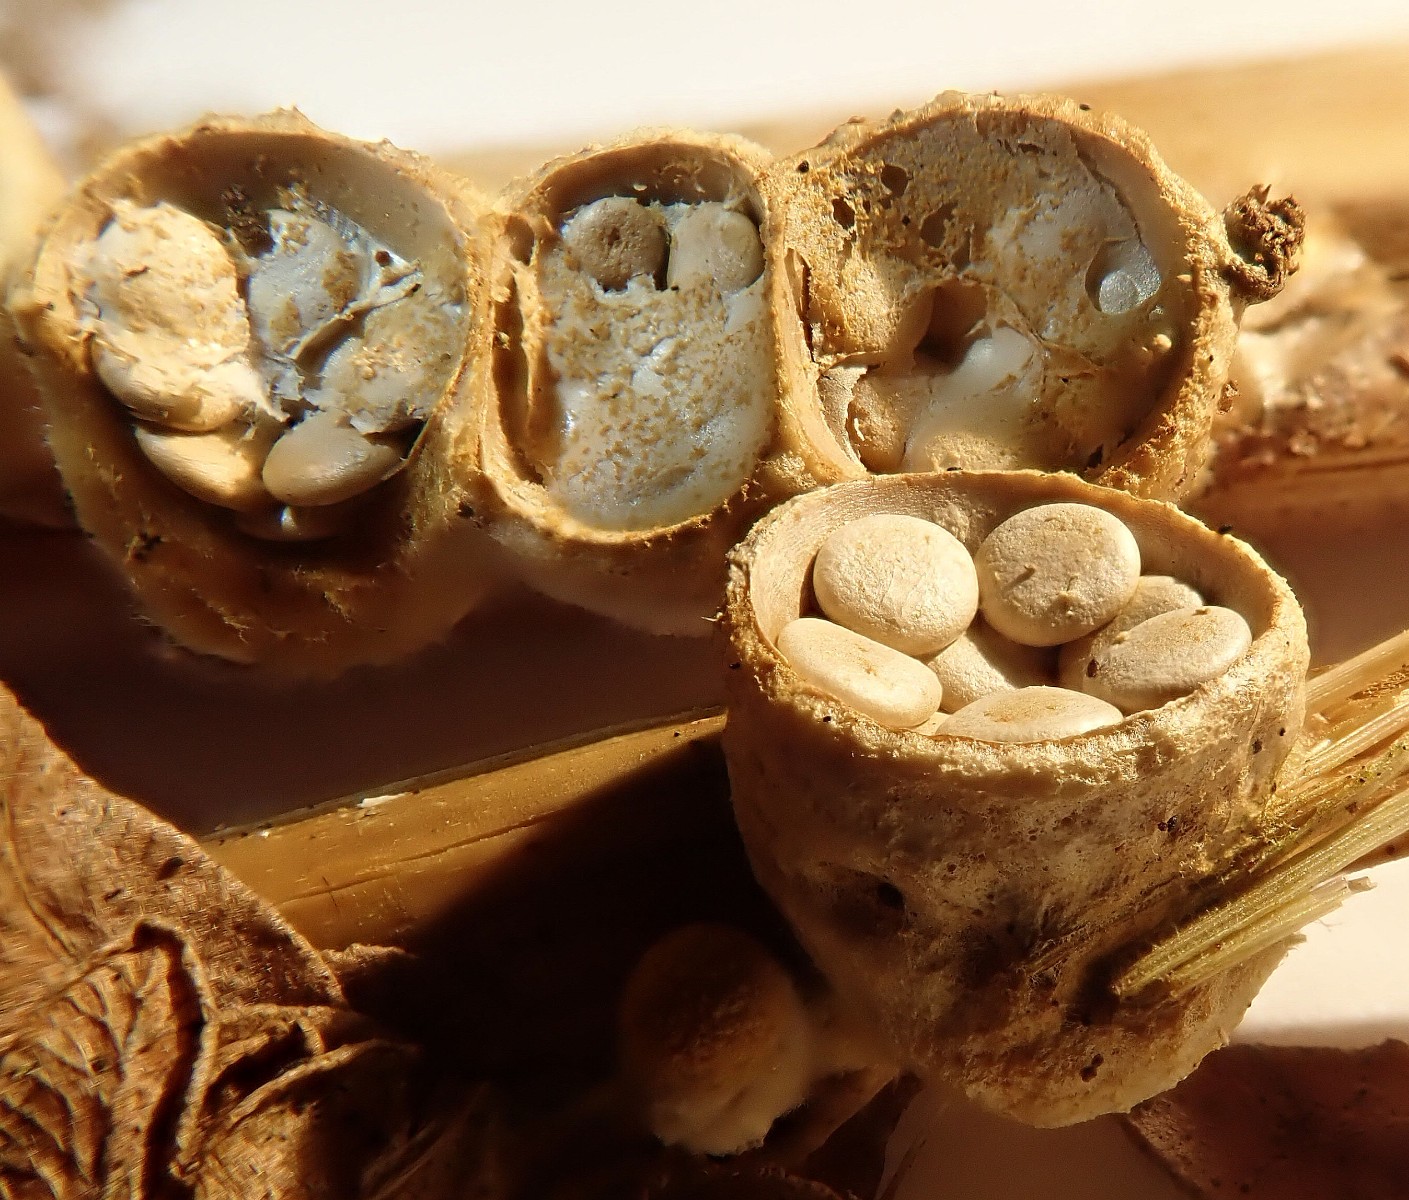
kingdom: Fungi
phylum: Basidiomycota
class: Agaricomycetes
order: Agaricales
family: Nidulariaceae
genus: Crucibulum
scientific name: Crucibulum crucibuliforme
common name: krukkesvamp
